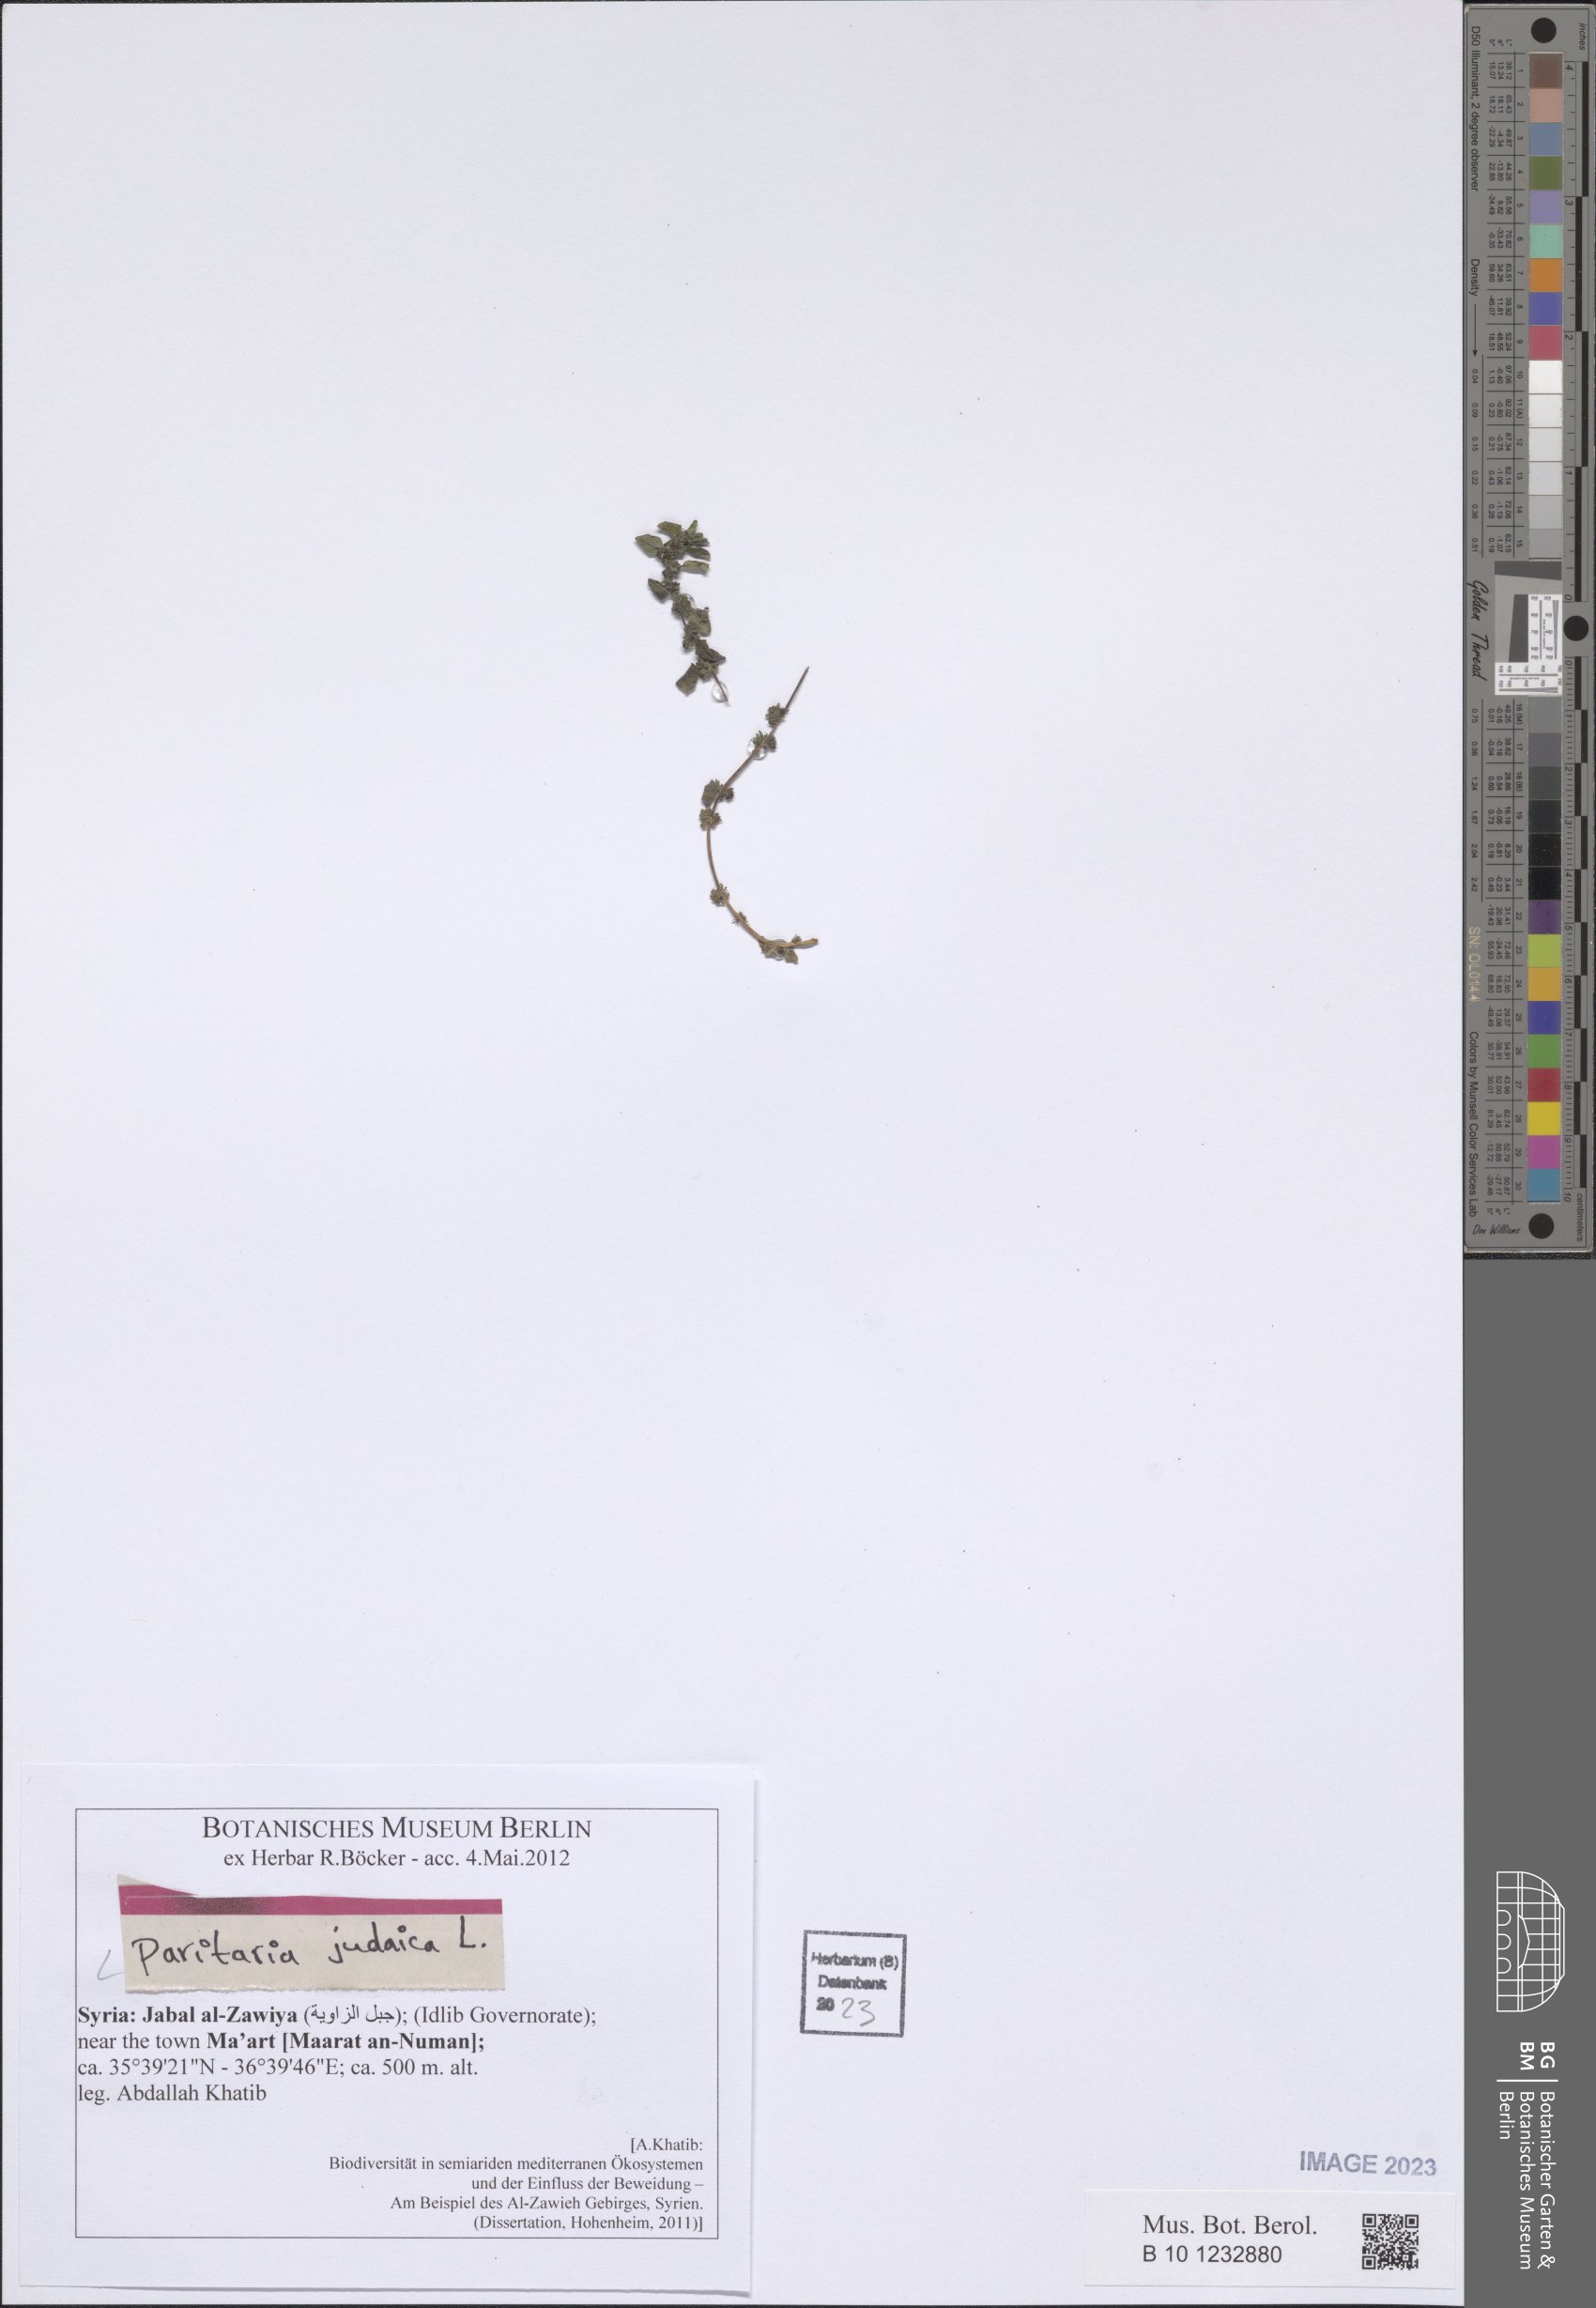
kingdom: Plantae
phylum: Tracheophyta
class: Magnoliopsida
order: Rosales
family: Urticaceae
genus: Parietaria
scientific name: Parietaria judaica
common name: Pellitory-of-the-wall
